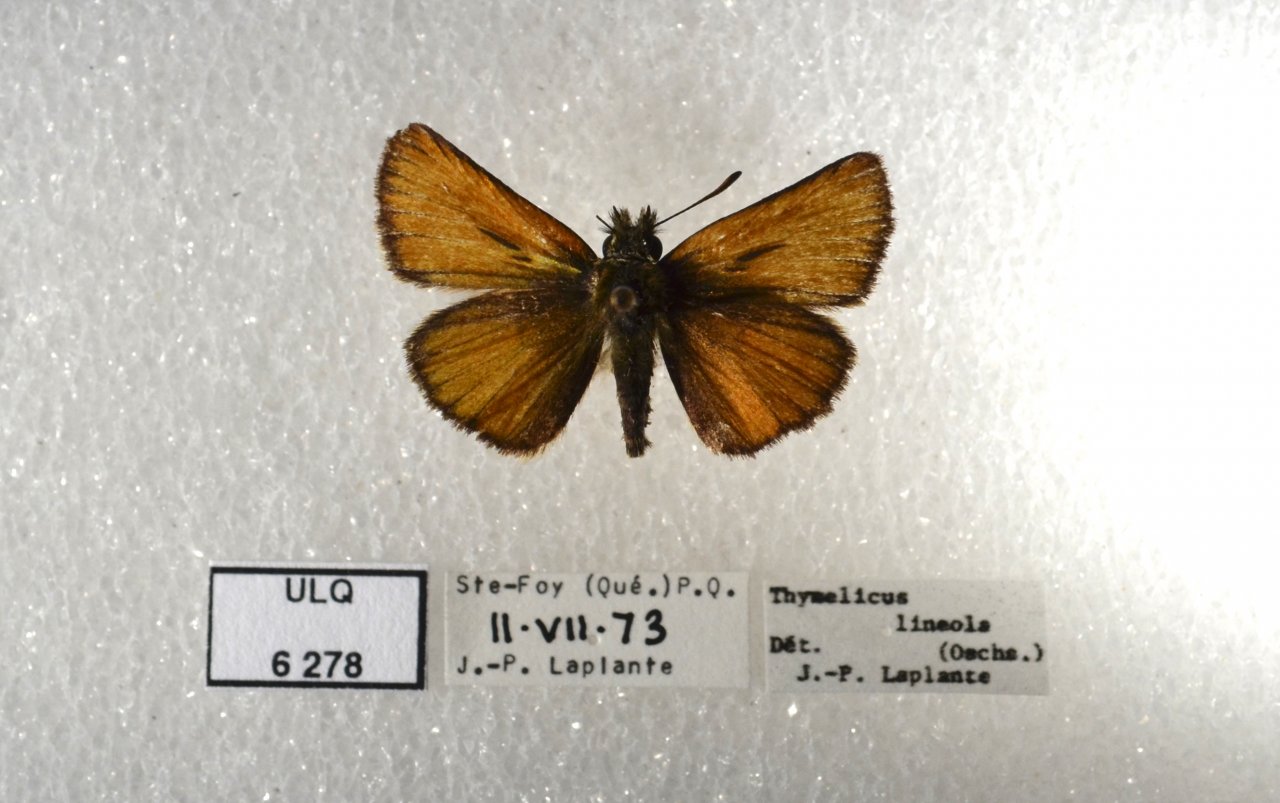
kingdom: Animalia
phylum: Arthropoda
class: Insecta
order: Lepidoptera
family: Hesperiidae
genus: Thymelicus
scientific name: Thymelicus lineola
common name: European Skipper
